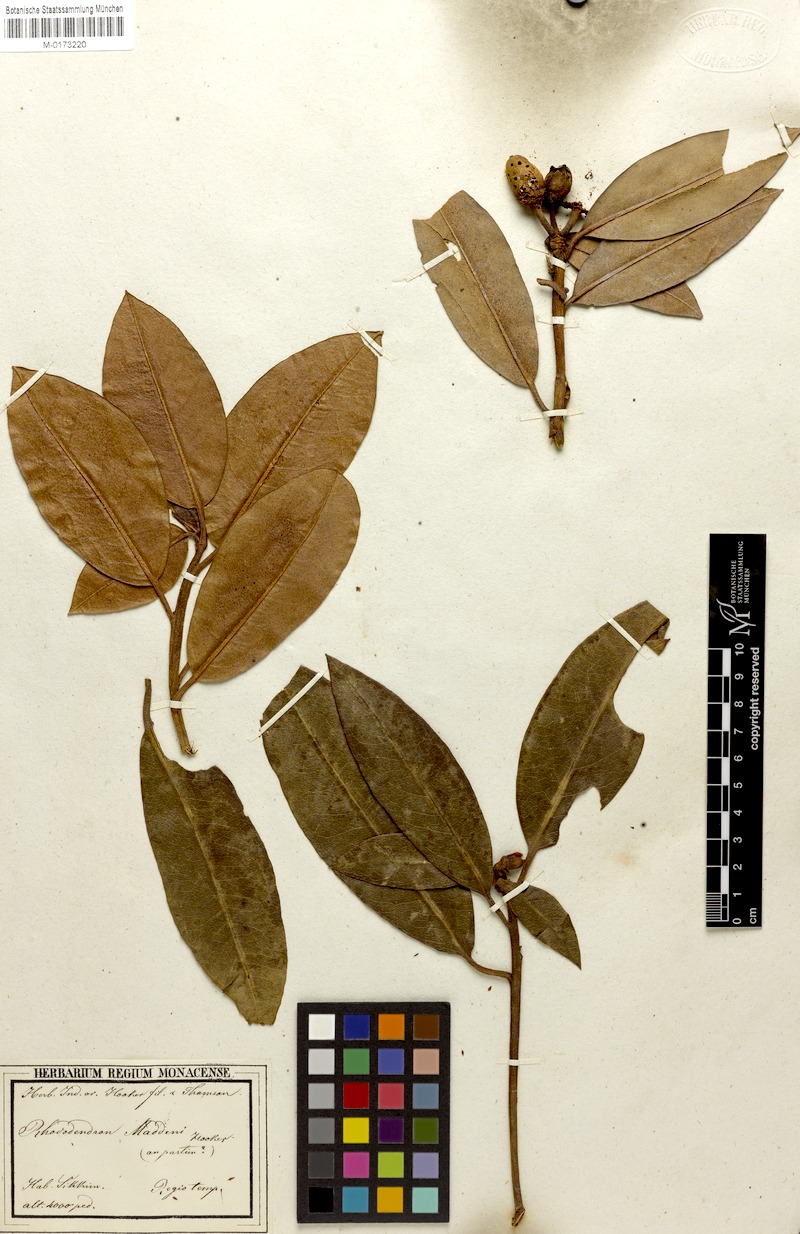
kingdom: Plantae
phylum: Tracheophyta
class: Magnoliopsida
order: Ericales
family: Ericaceae
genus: Rhododendron
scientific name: Rhododendron maddenii
